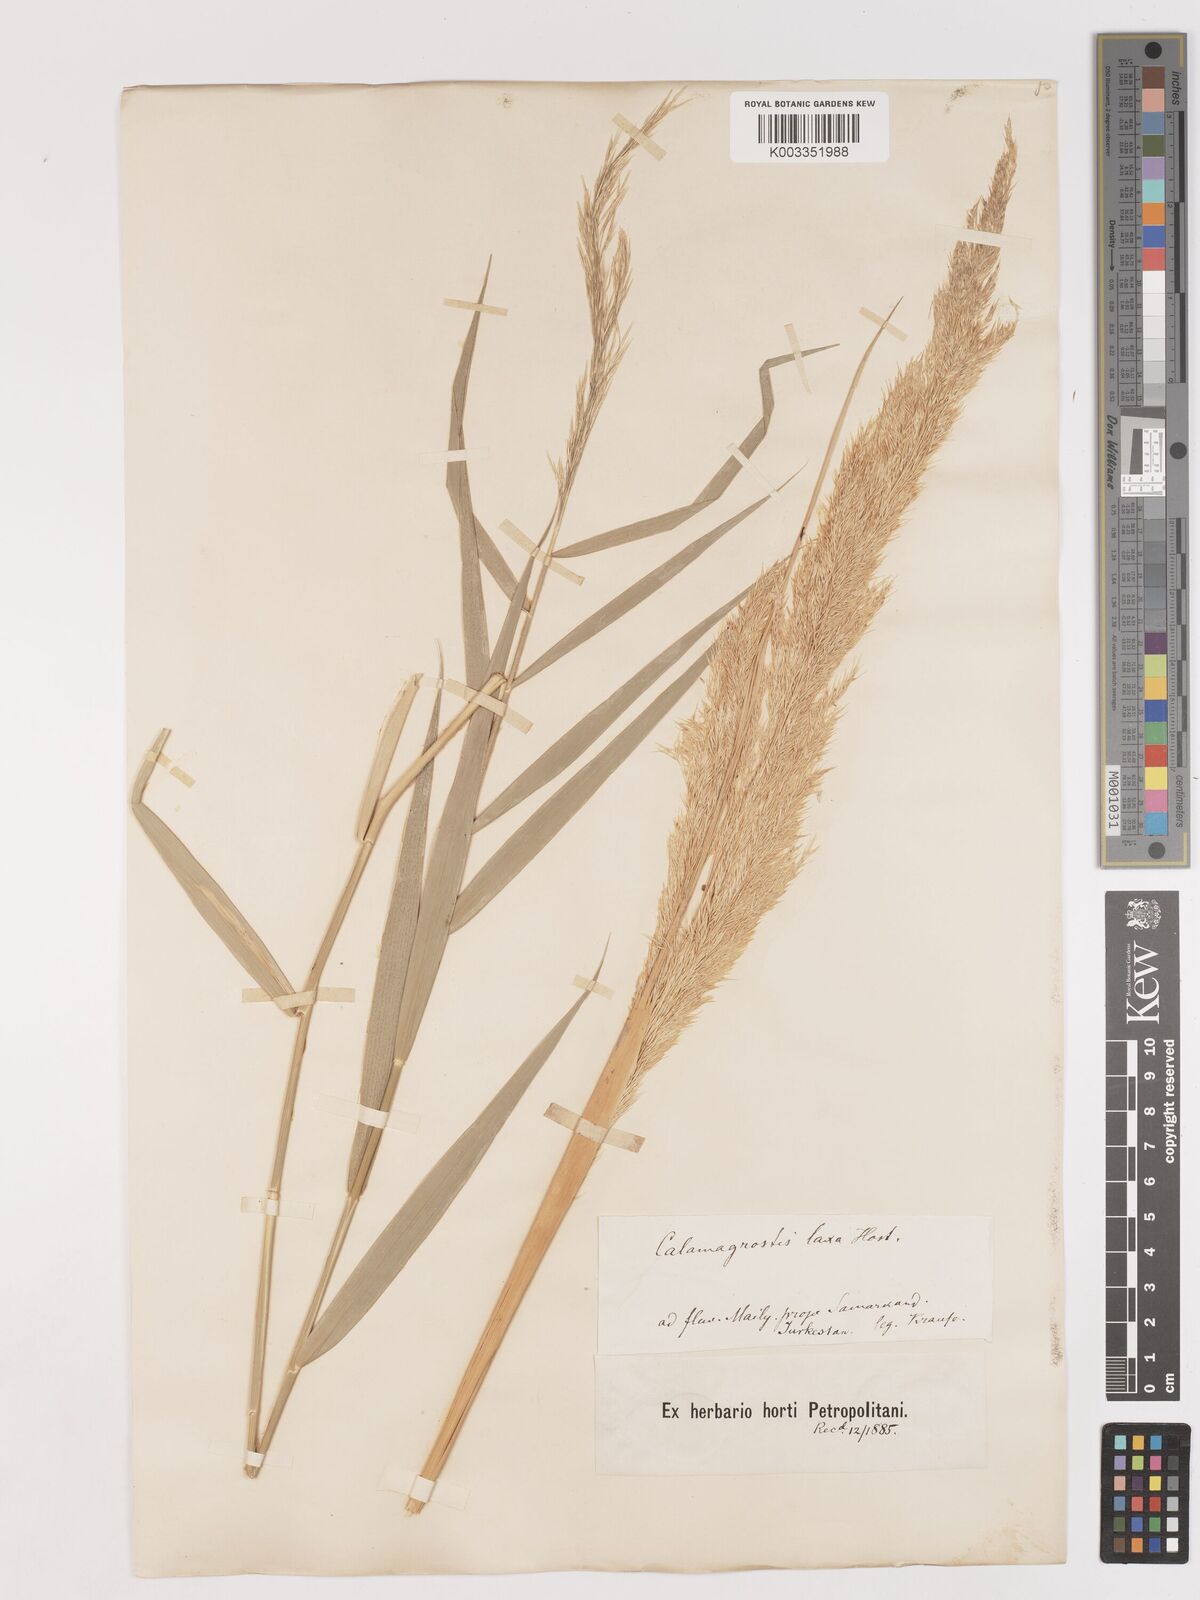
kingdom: Plantae
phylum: Tracheophyta
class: Liliopsida
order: Poales
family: Poaceae
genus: Calamagrostis
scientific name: Calamagrostis pseudophragmites
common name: Coastal small-reed
